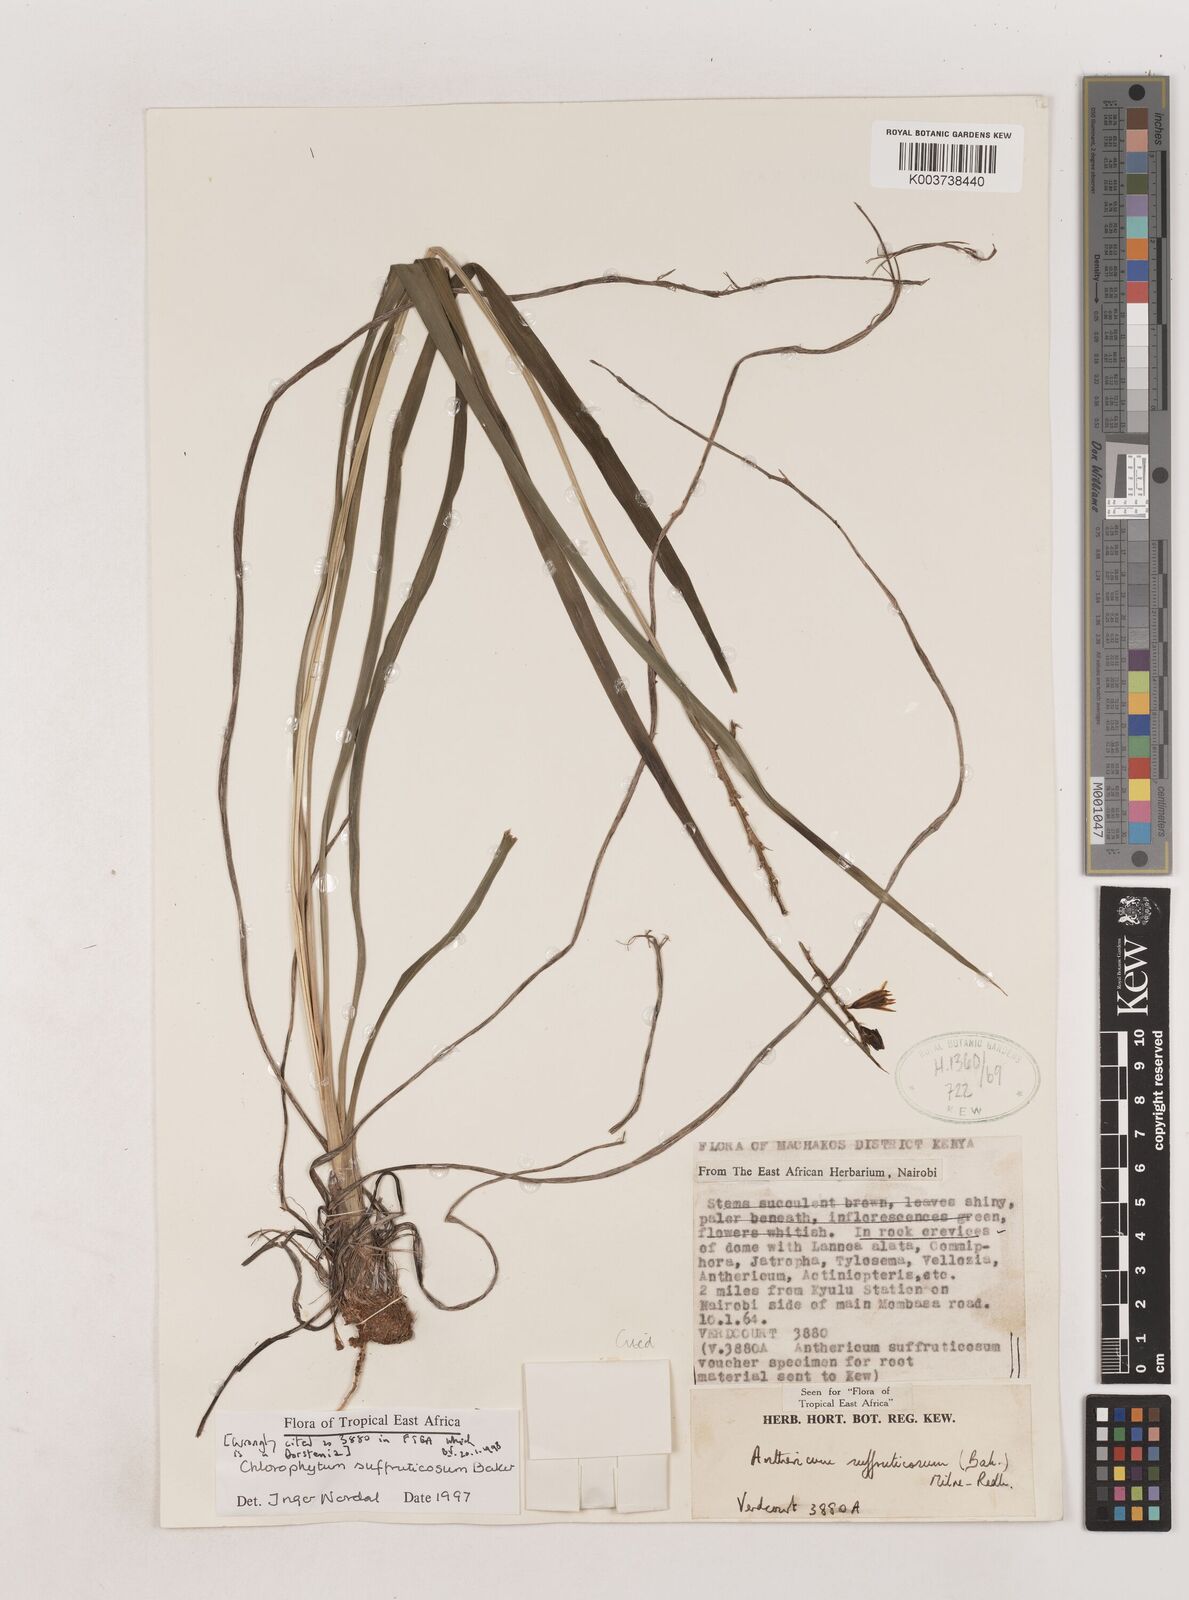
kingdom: Plantae
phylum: Tracheophyta
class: Liliopsida
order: Asparagales
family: Asparagaceae
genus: Chlorophytum
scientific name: Chlorophytum suffruticosum
